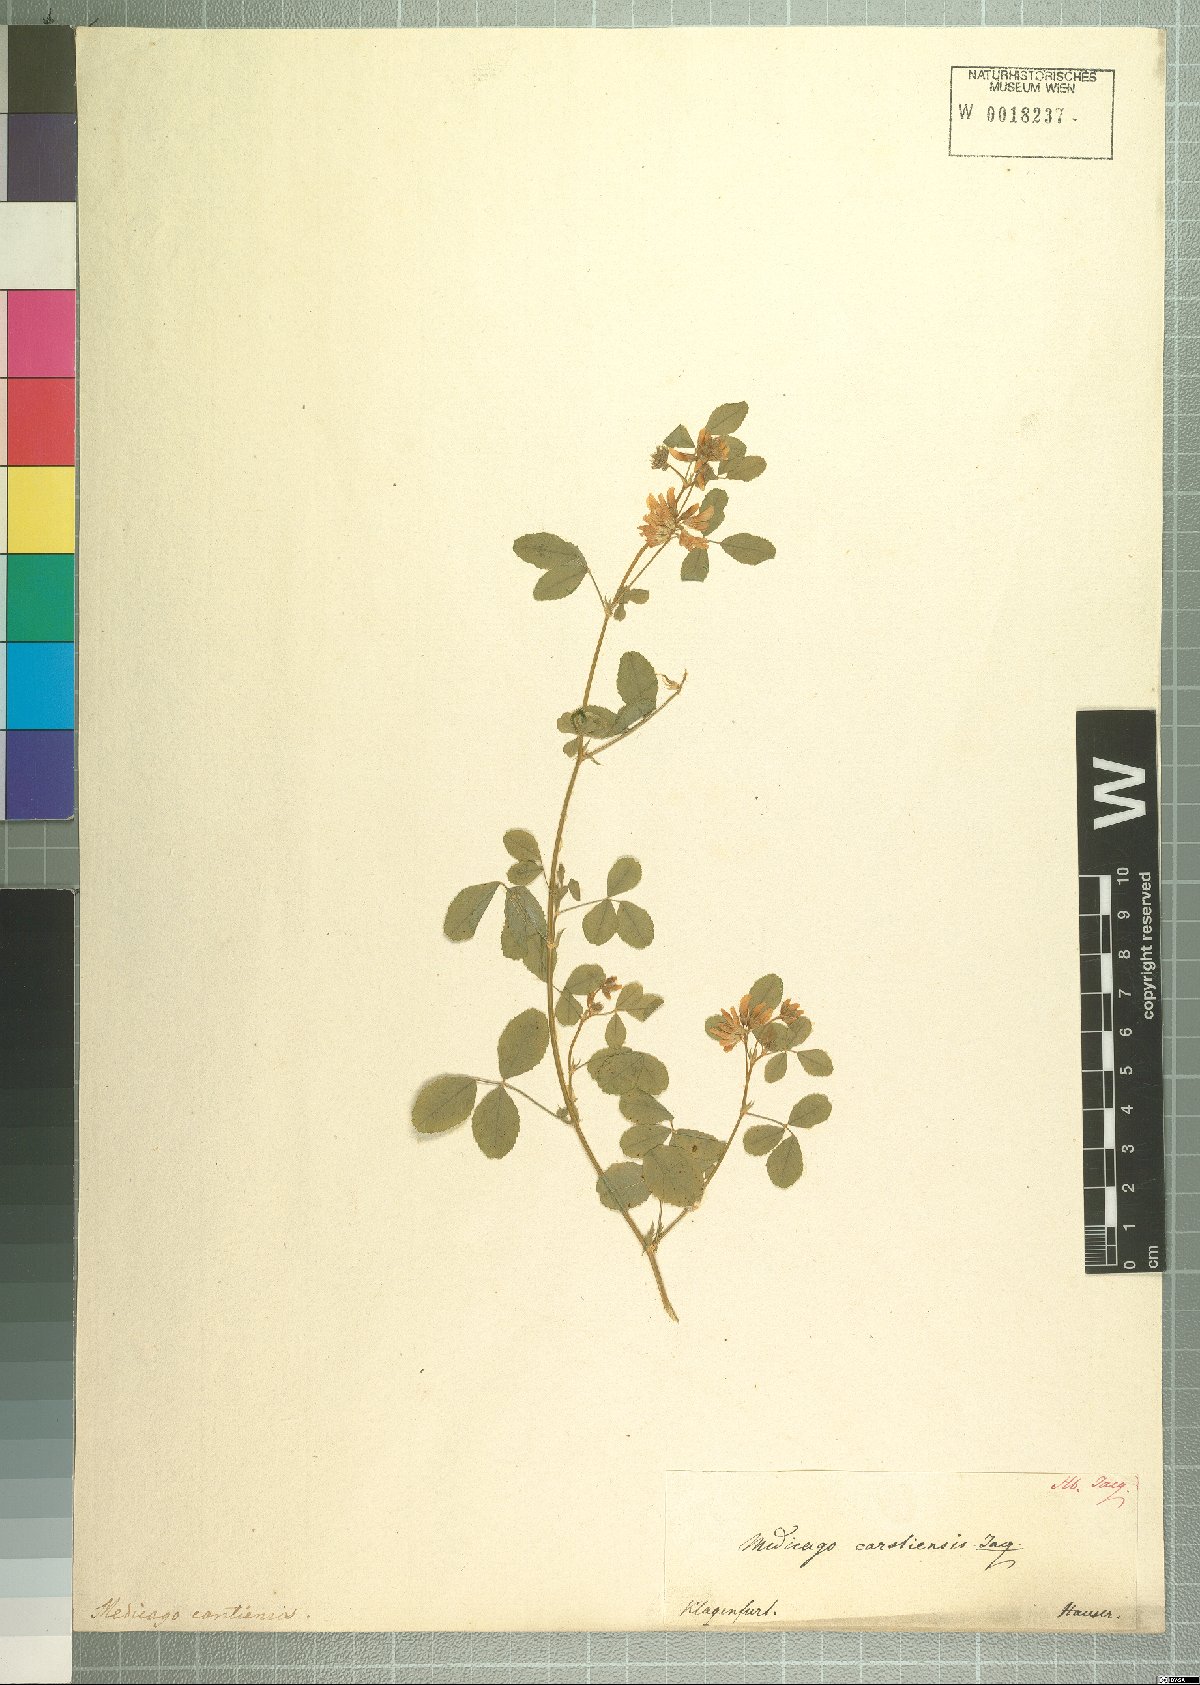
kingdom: Plantae
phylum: Tracheophyta
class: Magnoliopsida
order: Fabales
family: Fabaceae
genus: Medicago
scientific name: Medicago carstiensis
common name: Creeping-rooted medic
